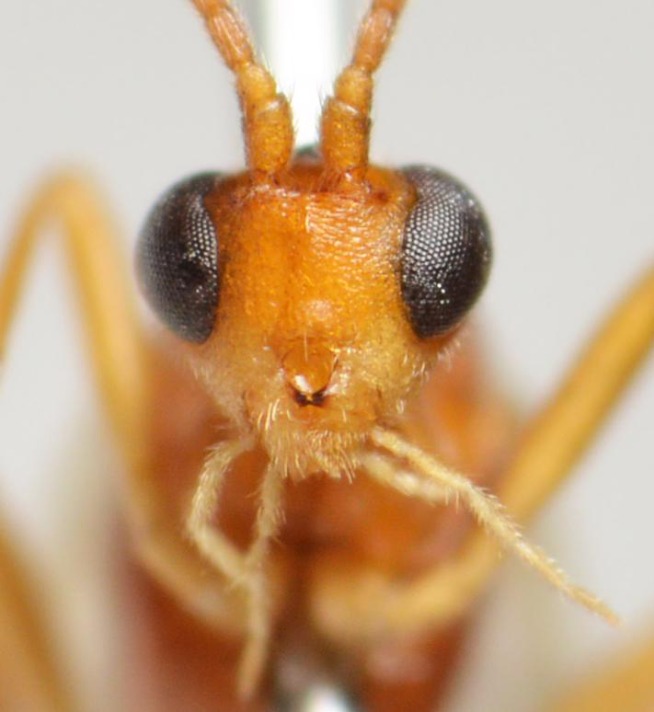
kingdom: Animalia
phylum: Arthropoda
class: Insecta
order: Hymenoptera
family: Braconidae
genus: Aleiodes
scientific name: Aleiodes gastritor
